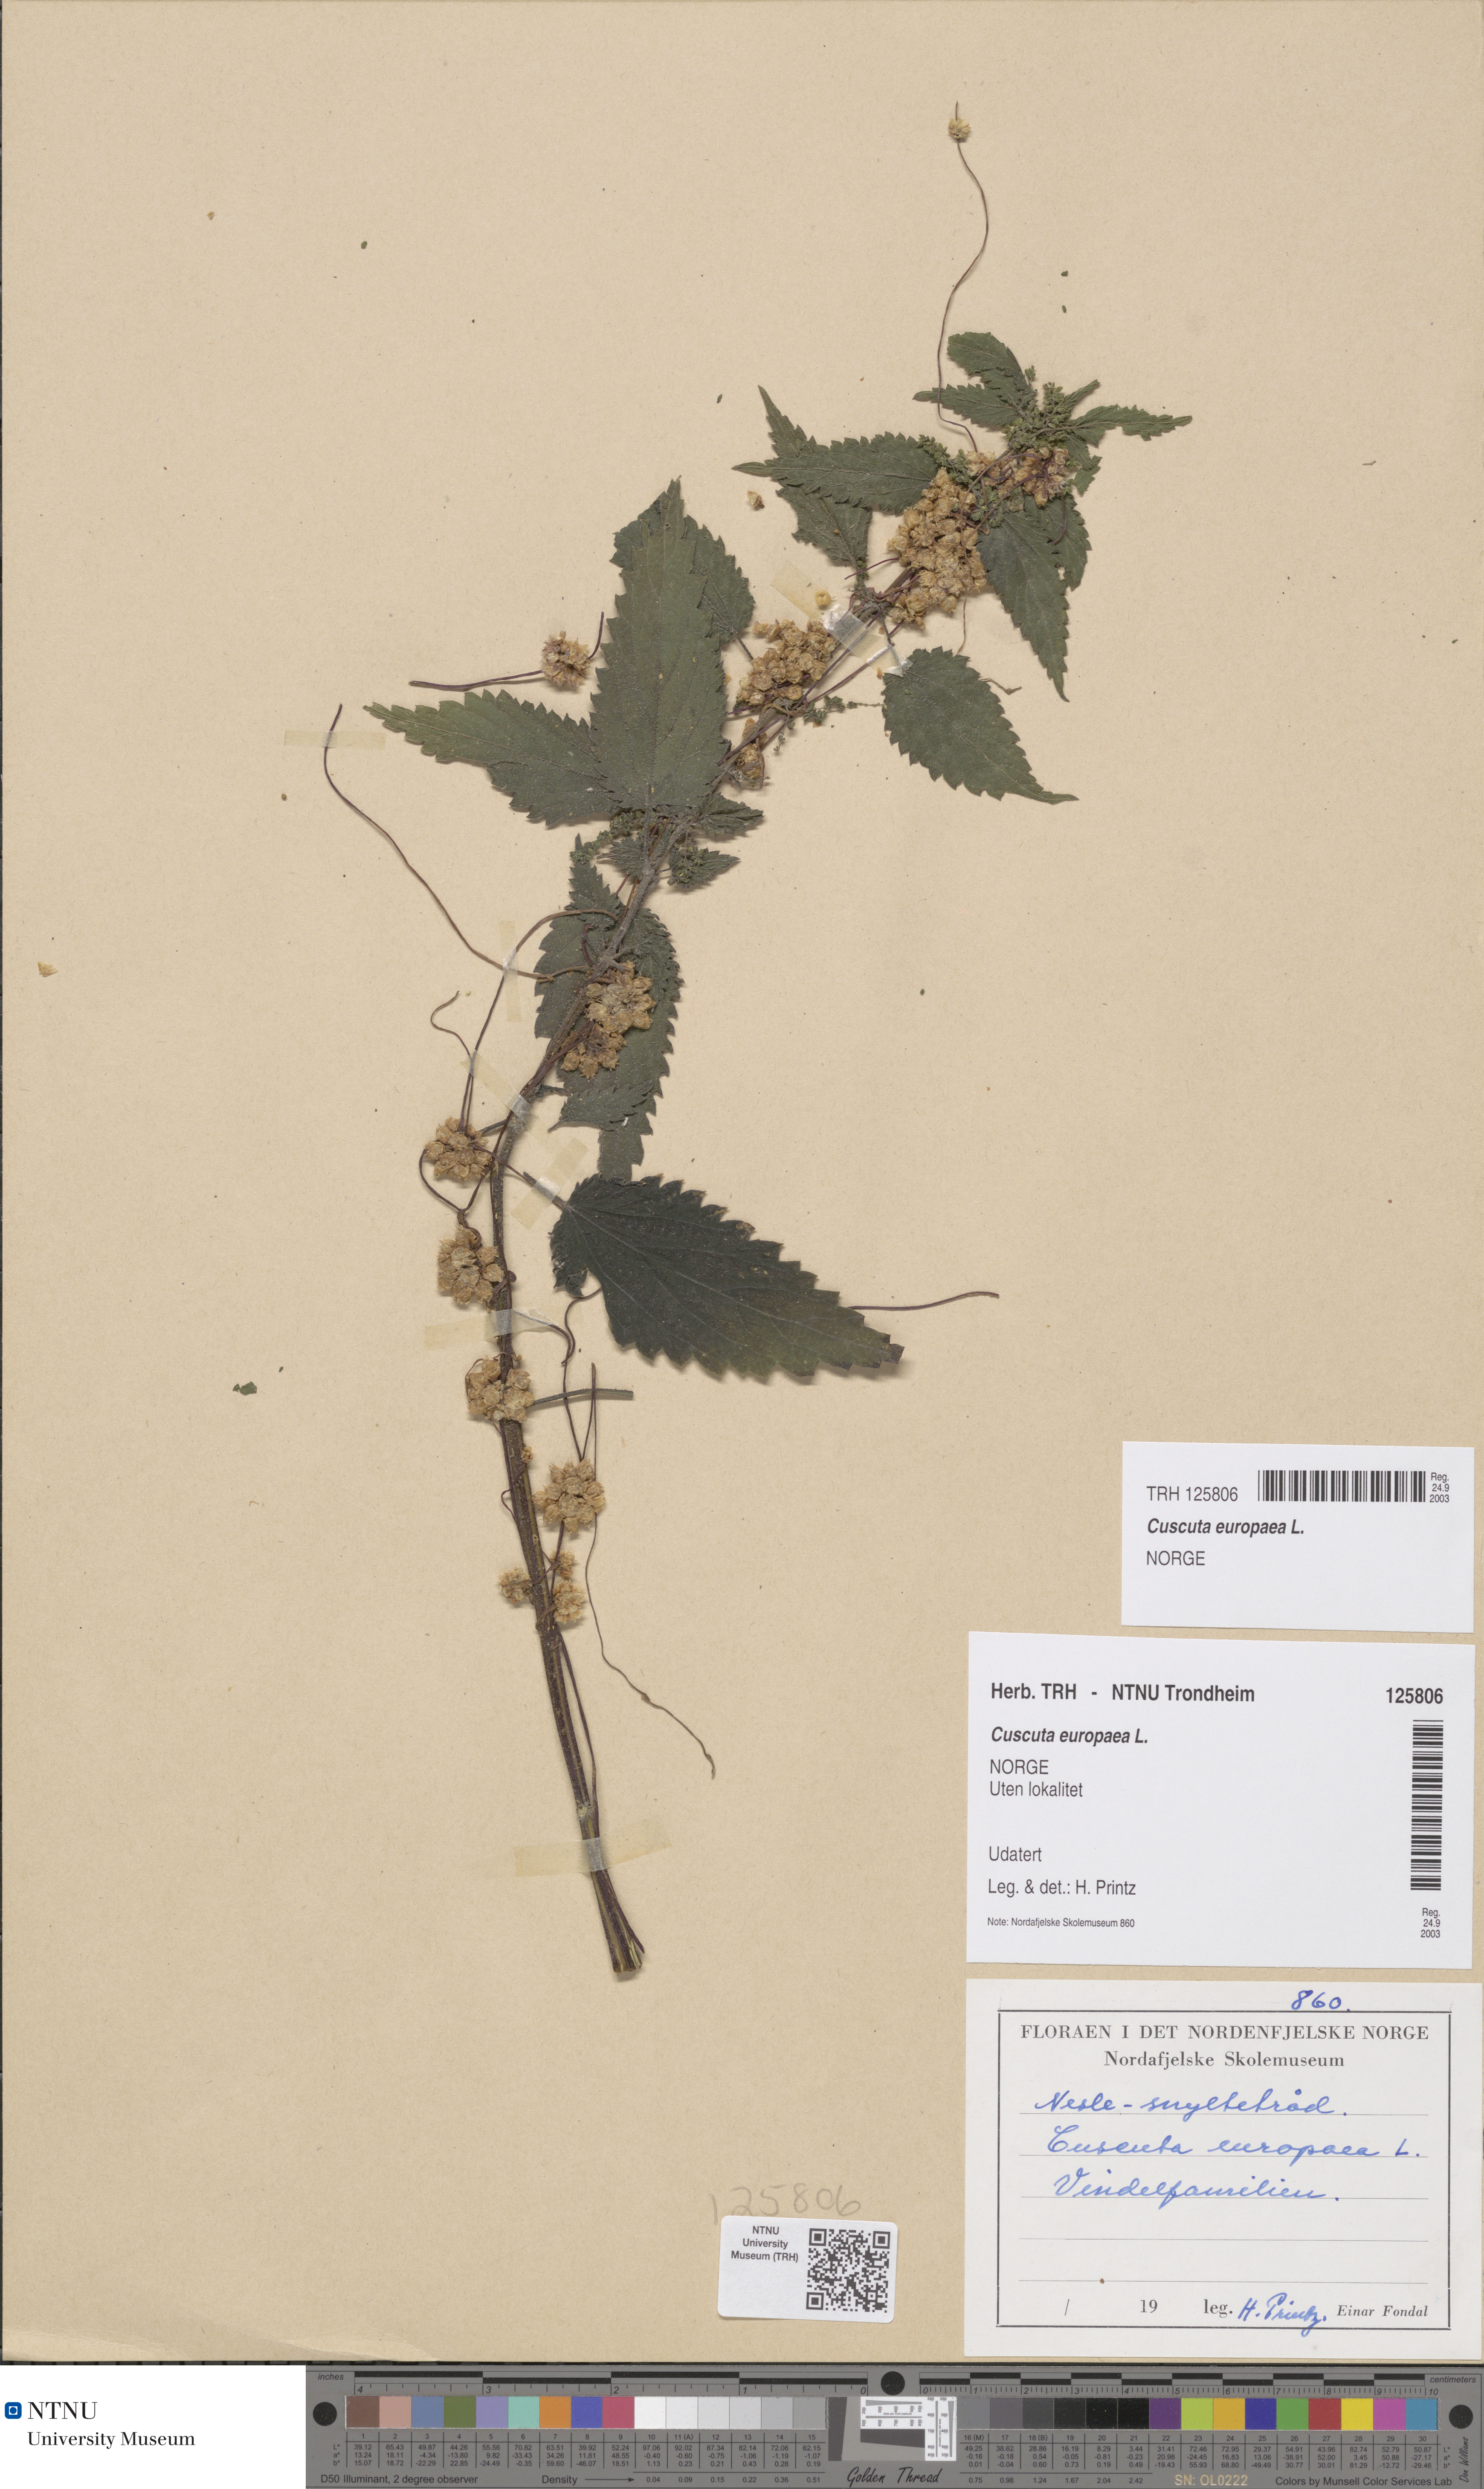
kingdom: Plantae
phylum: Tracheophyta
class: Magnoliopsida
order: Solanales
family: Convolvulaceae
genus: Cuscuta
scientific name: Cuscuta europaea
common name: Greater dodder
